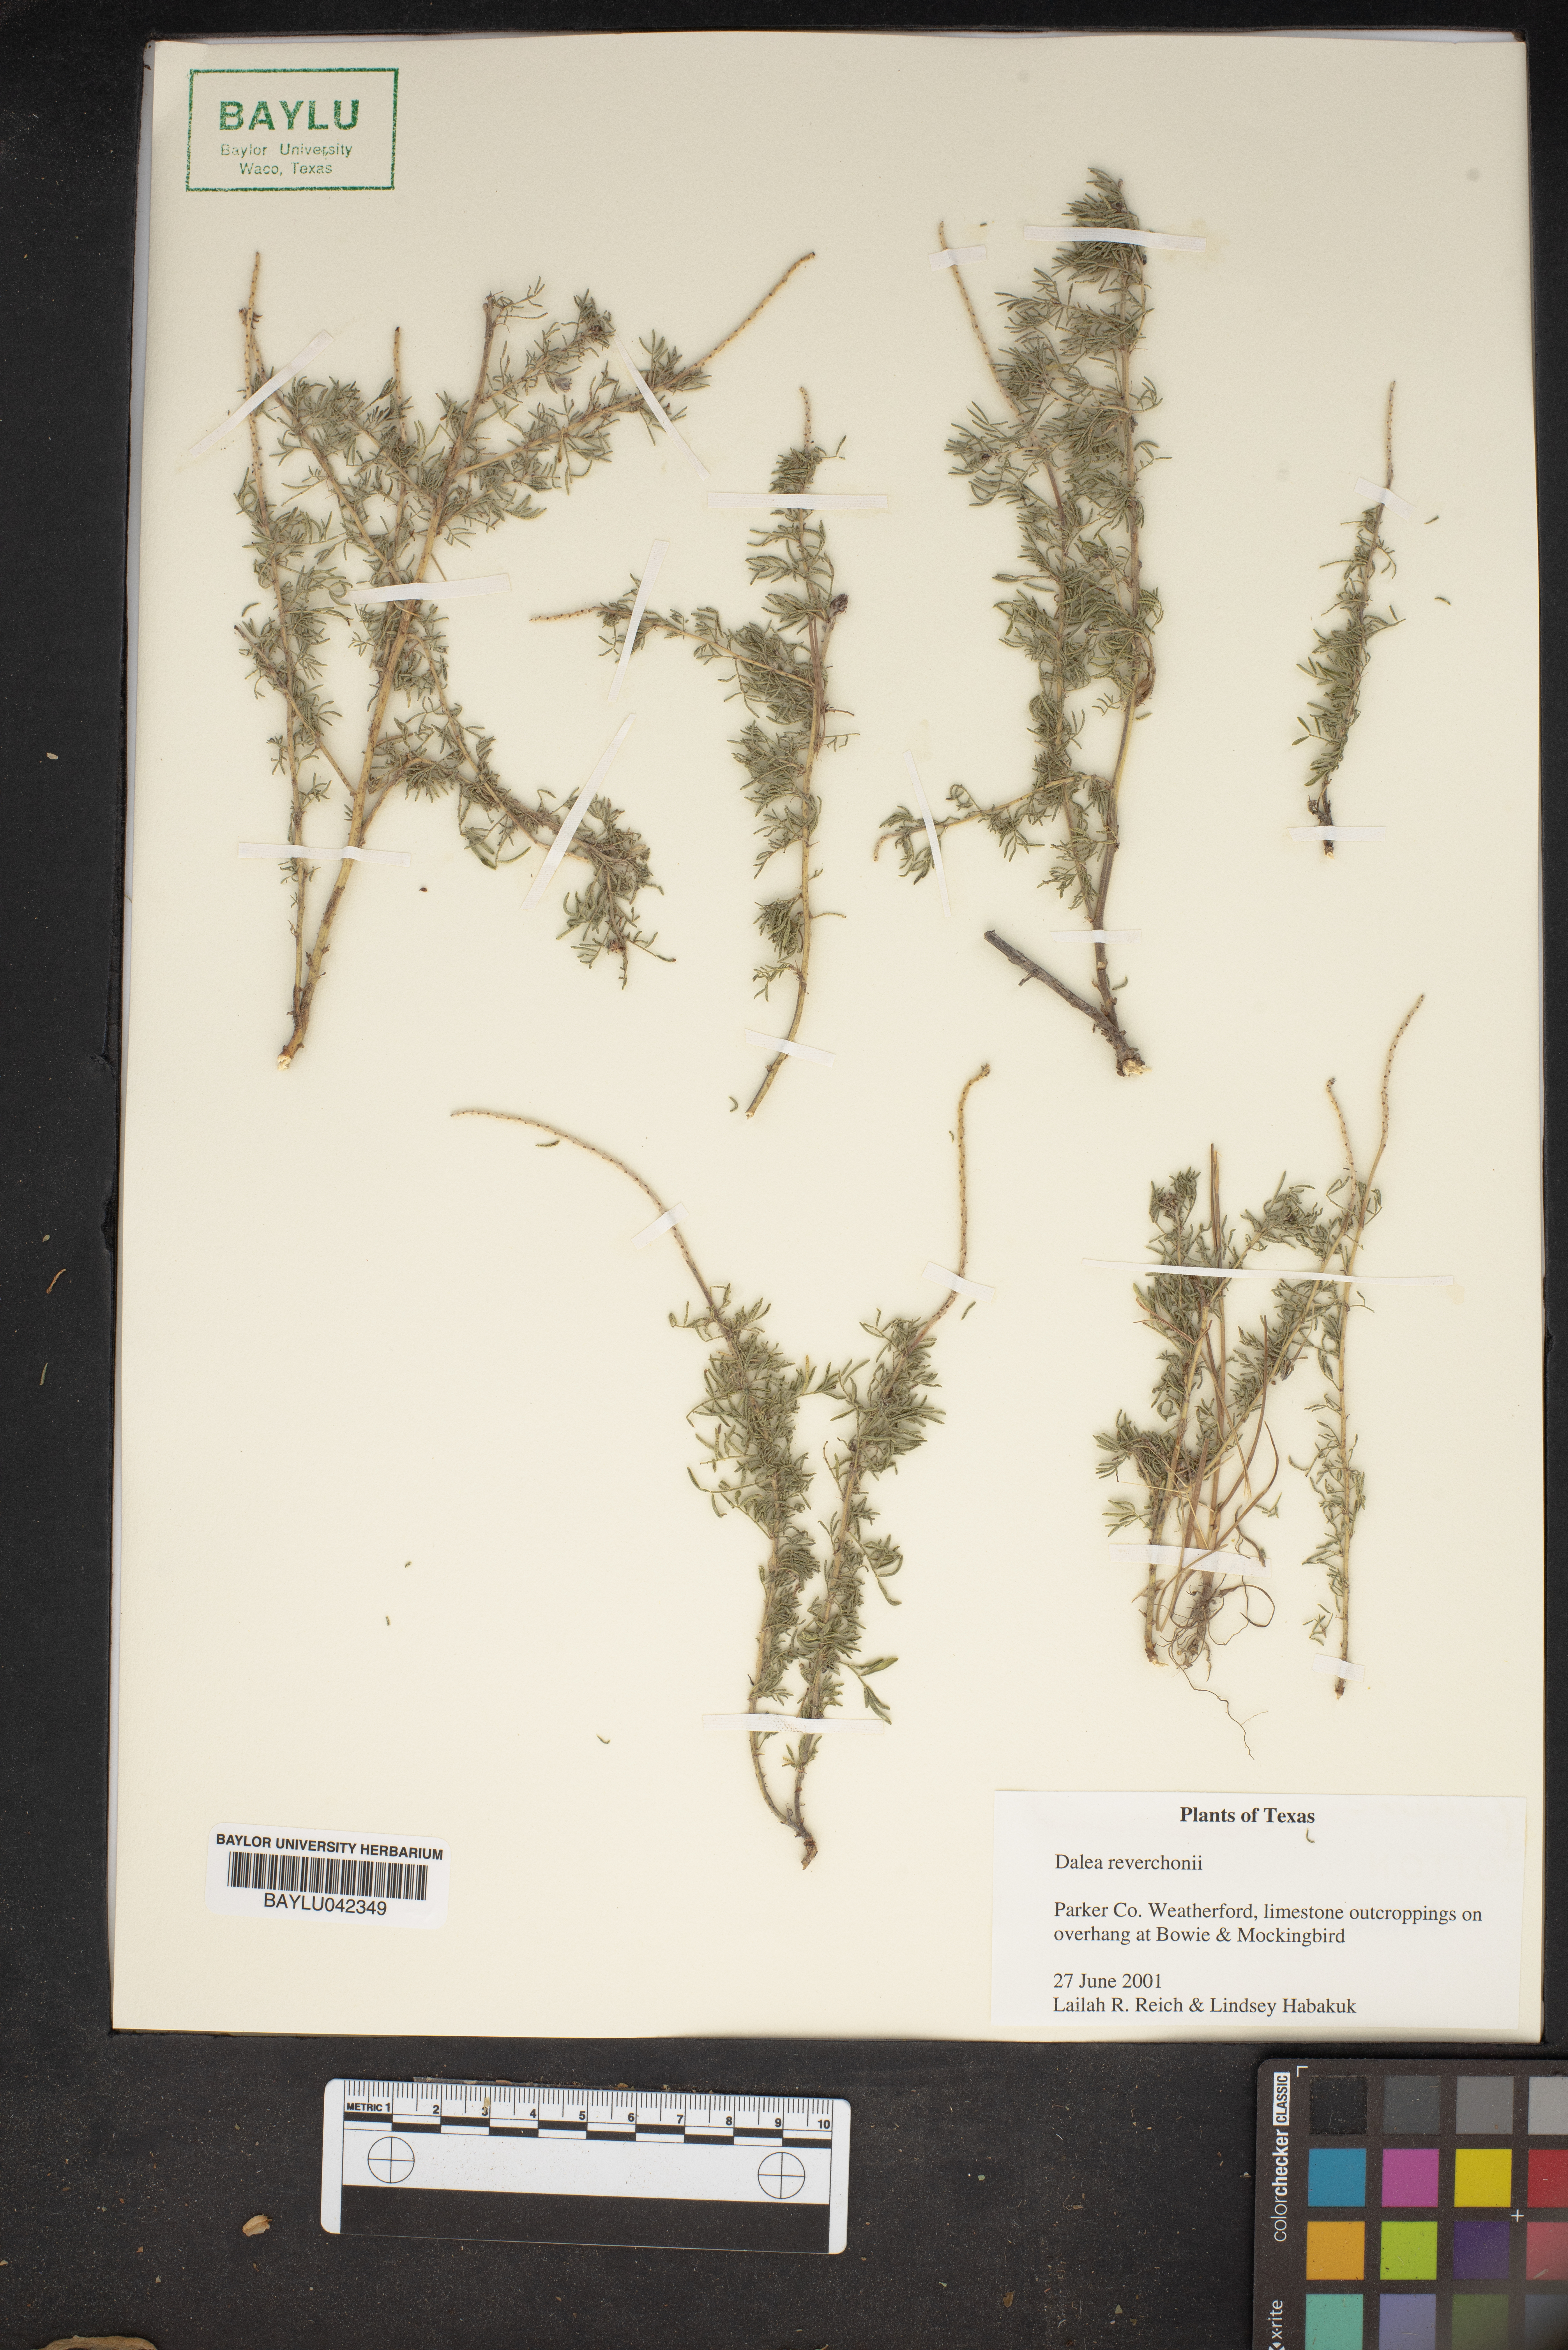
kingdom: Plantae
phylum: Tracheophyta
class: Magnoliopsida
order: Fabales
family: Fabaceae
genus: Dalea
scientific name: Dalea reverchonii
